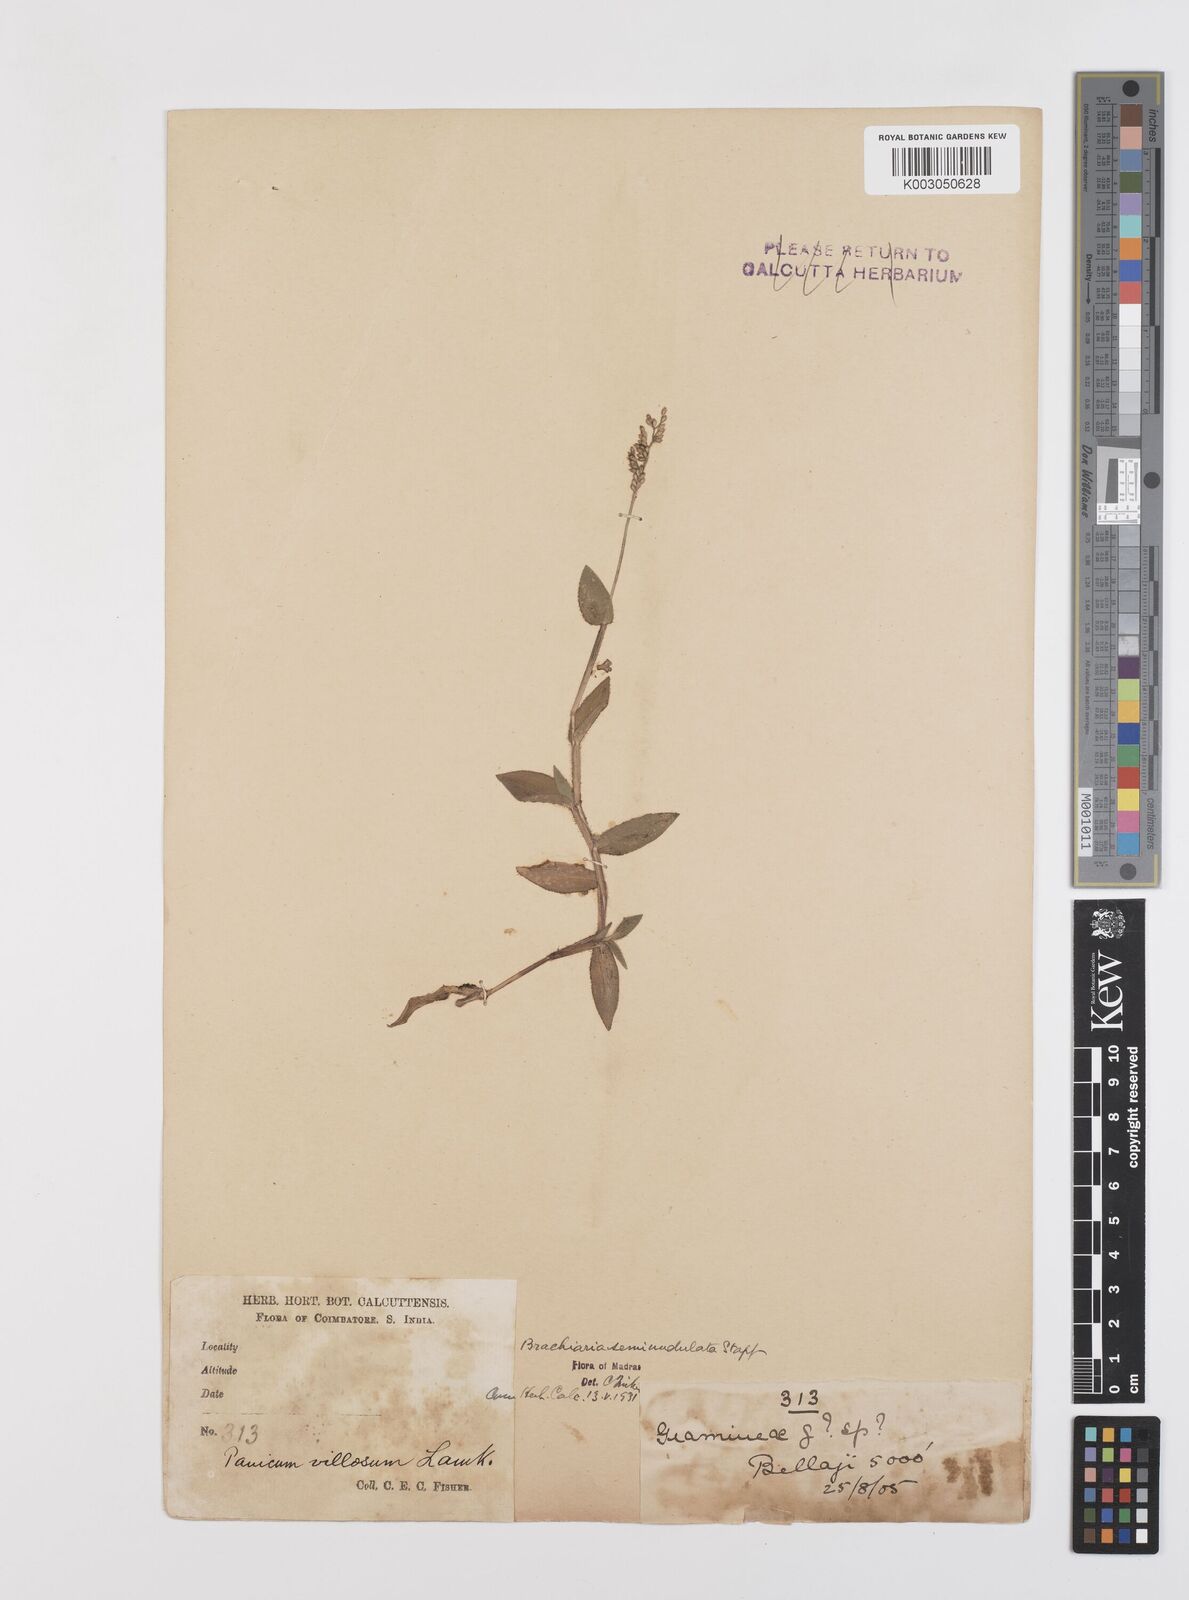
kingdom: Plantae
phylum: Tracheophyta
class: Liliopsida
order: Poales
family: Poaceae
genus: Urochloa
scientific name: Urochloa semiundulata
